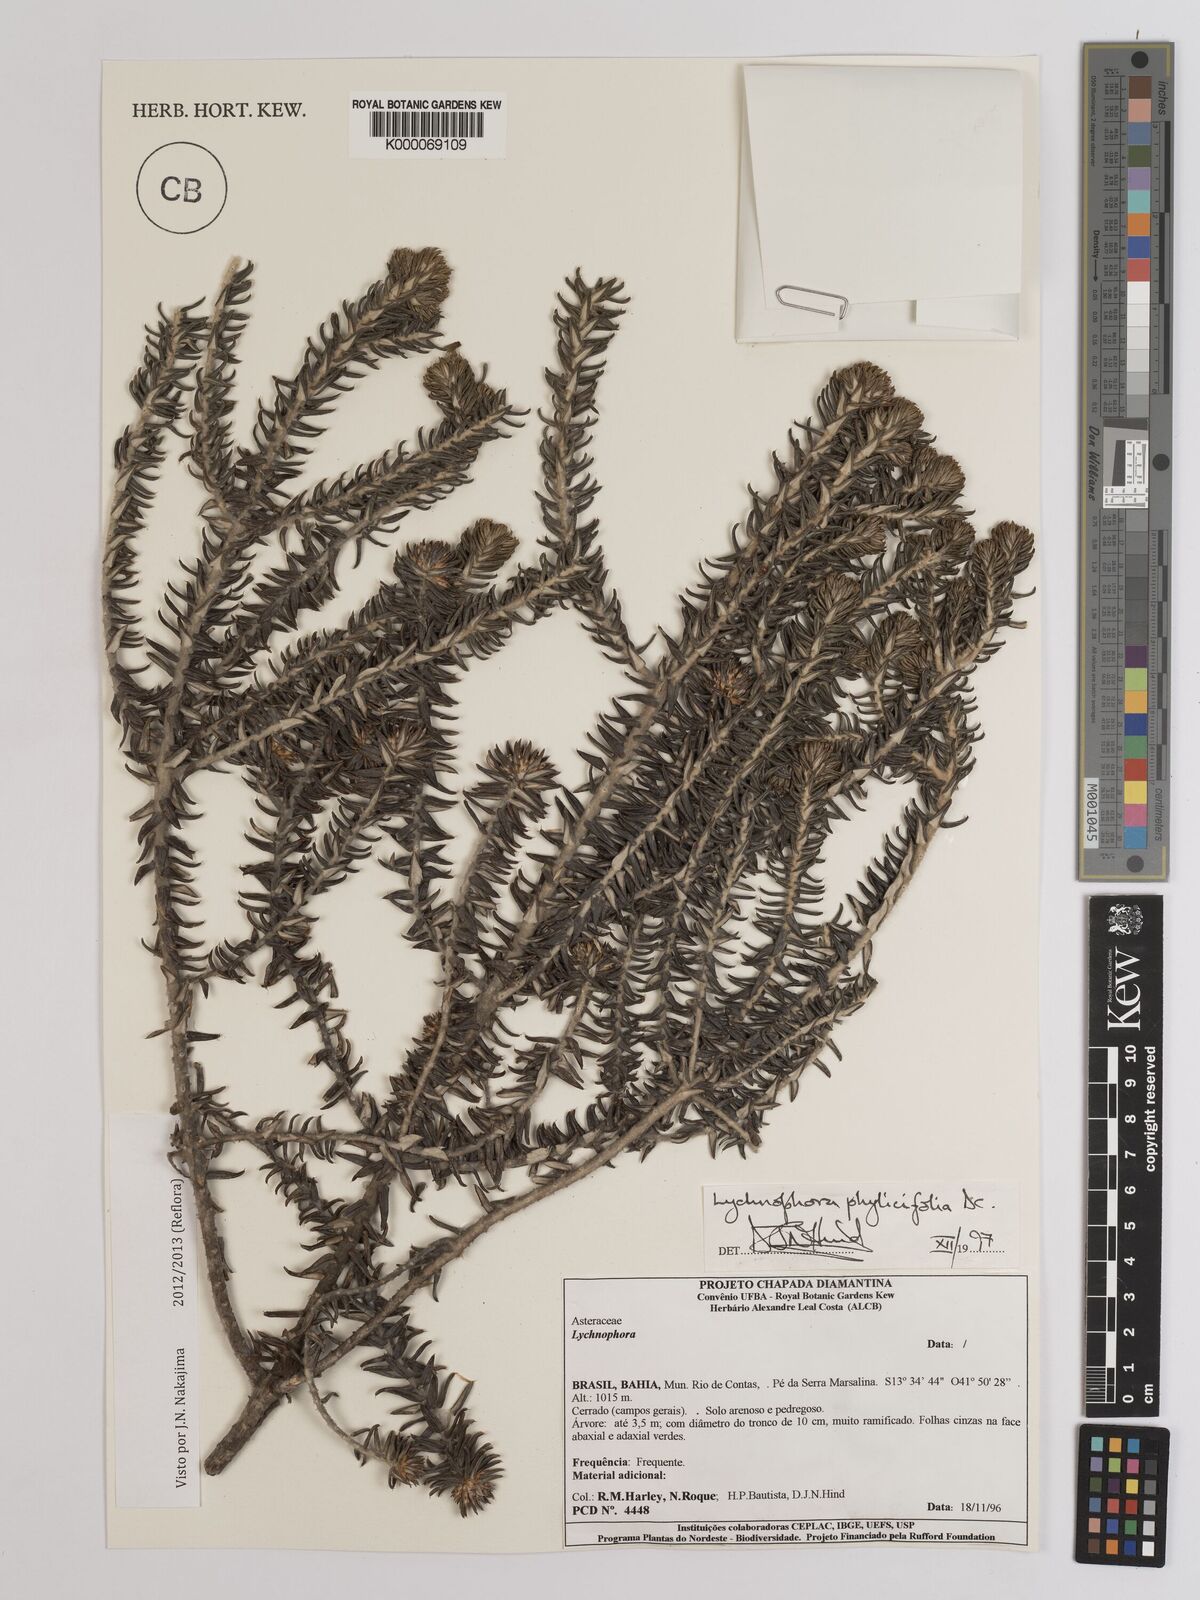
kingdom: Plantae
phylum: Tracheophyta
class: Magnoliopsida
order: Asterales
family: Asteraceae
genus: Lychnophora
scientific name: Lychnophora phylicifolia
